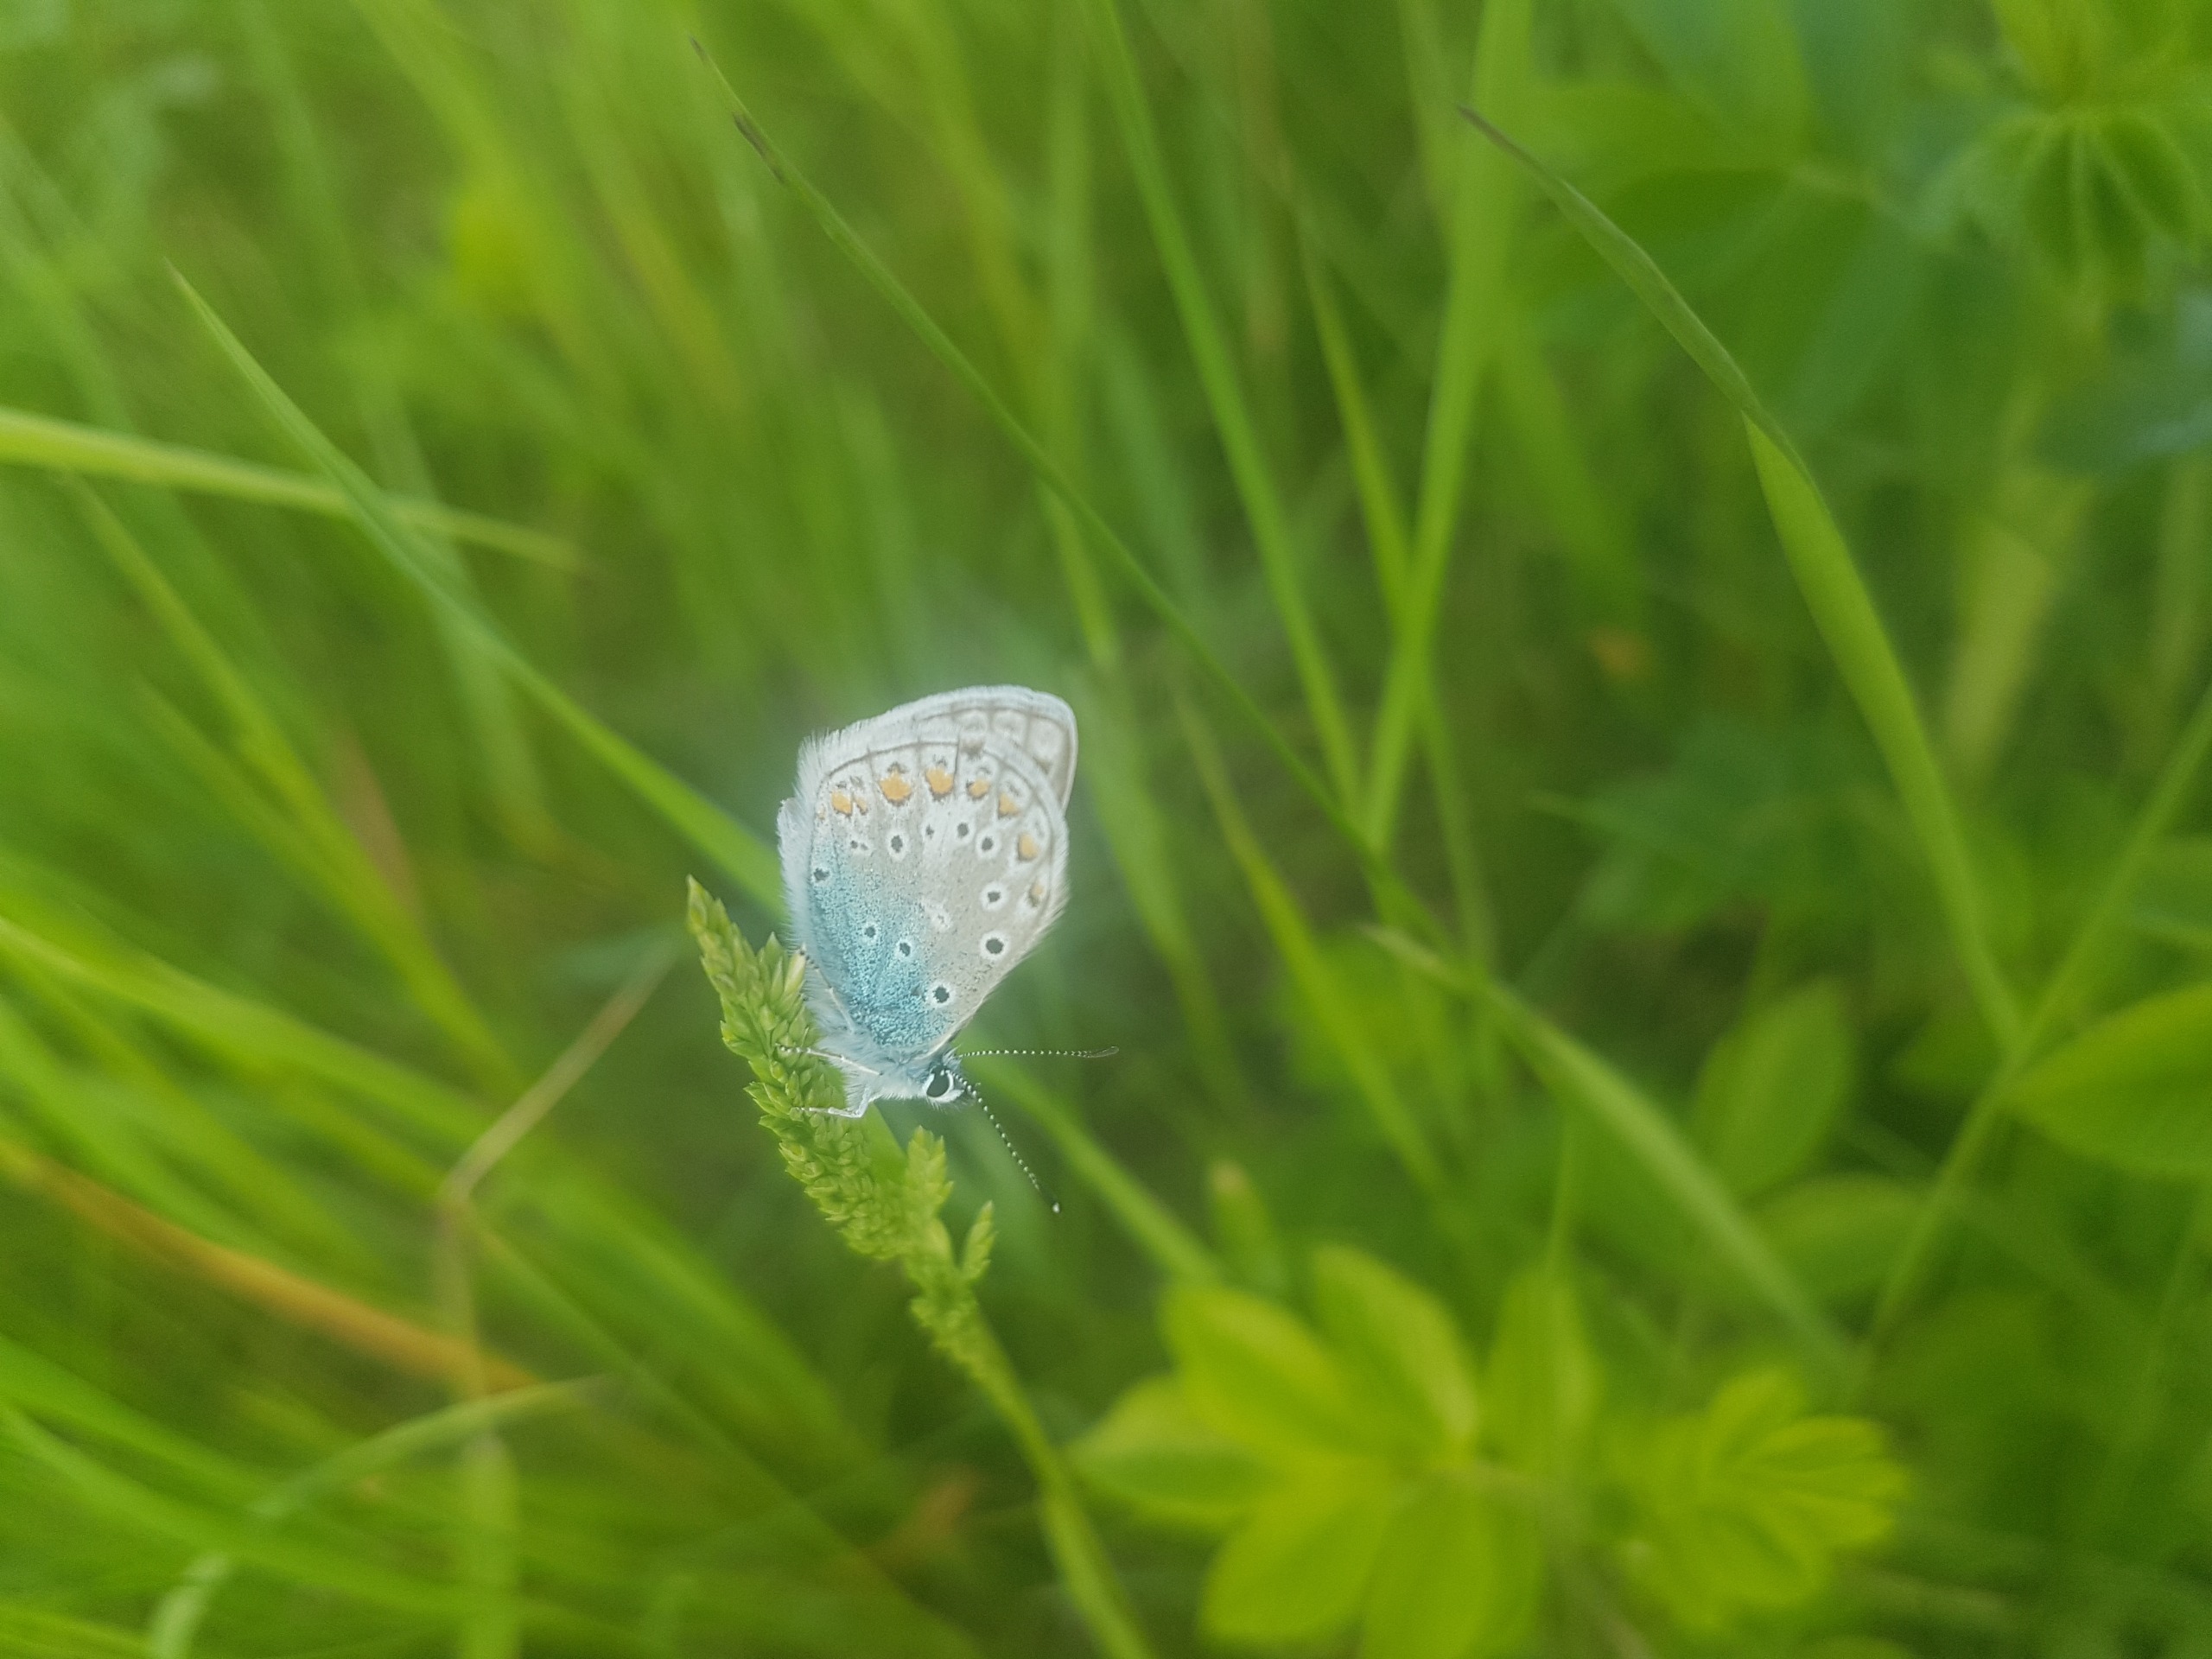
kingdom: Animalia
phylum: Arthropoda
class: Insecta
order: Lepidoptera
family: Lycaenidae
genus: Polyommatus
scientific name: Polyommatus icarus
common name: Almindelig blåfugl
